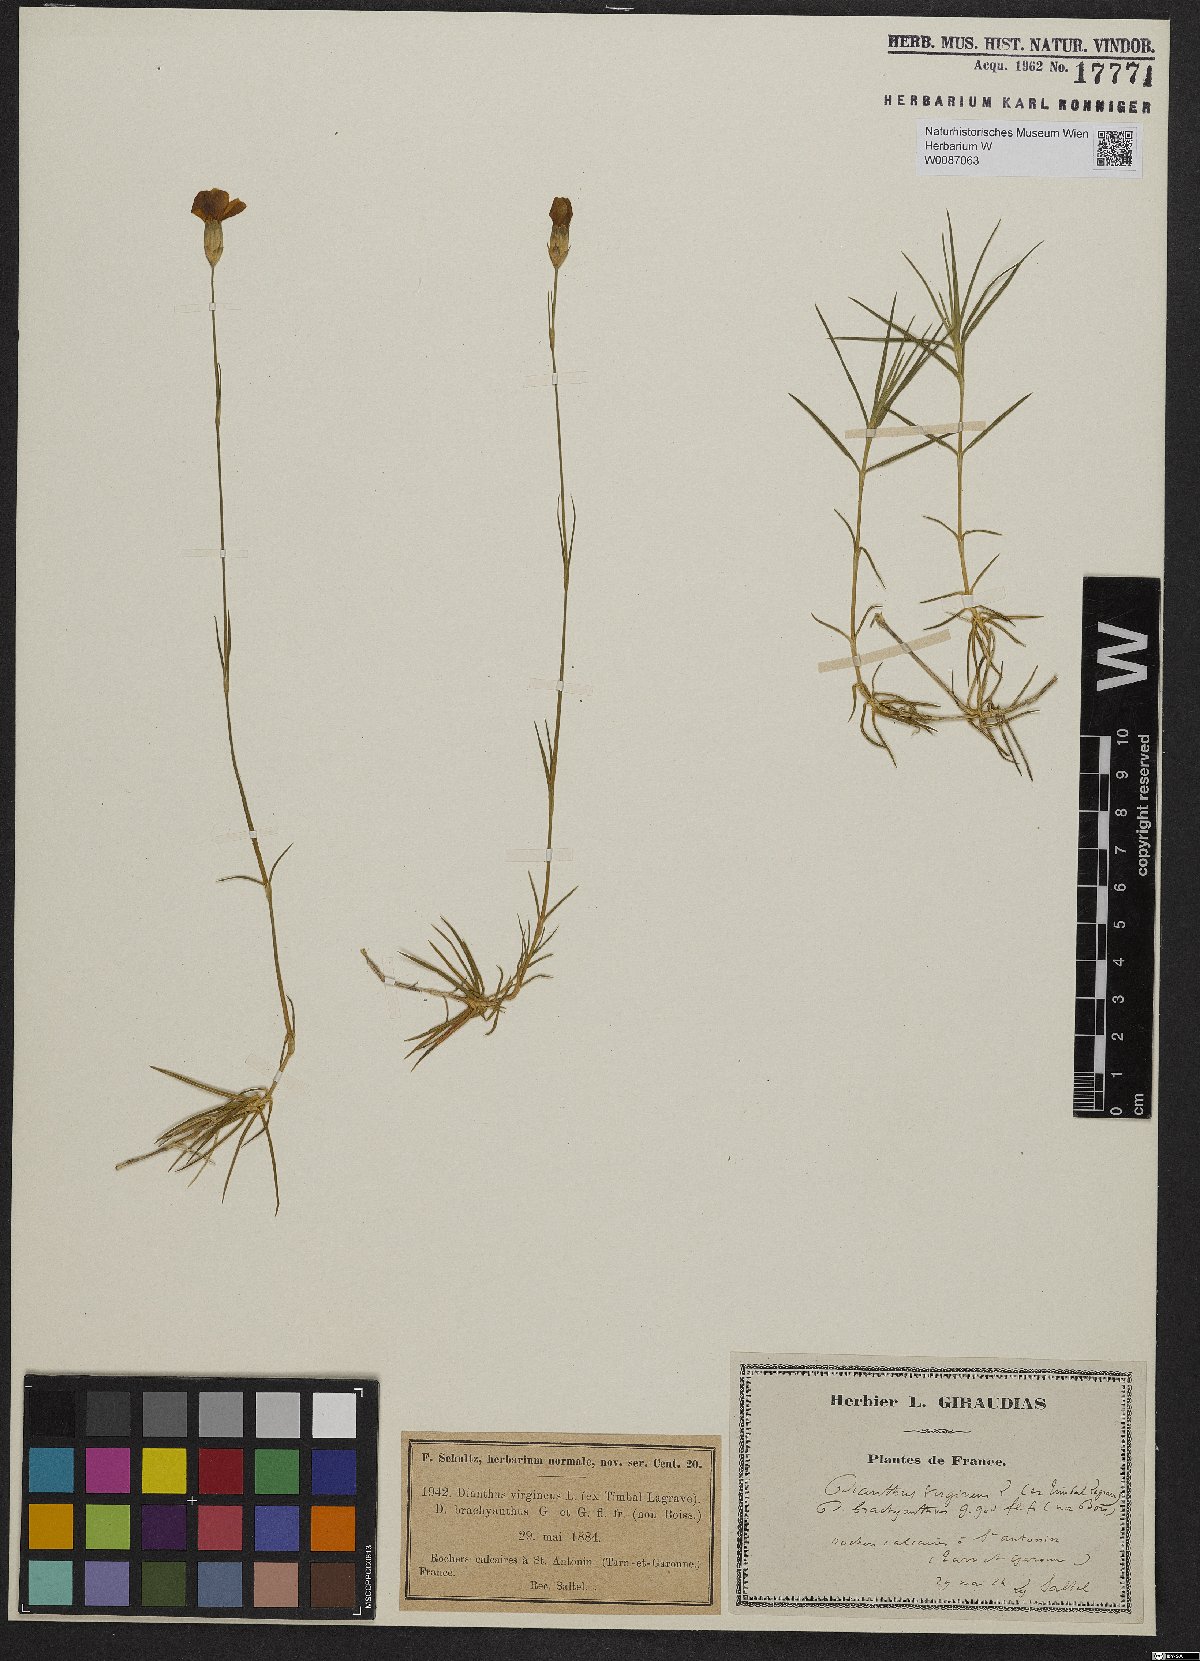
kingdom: Plantae
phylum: Tracheophyta
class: Magnoliopsida
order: Caryophyllales
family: Caryophyllaceae
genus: Dianthus
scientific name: Dianthus virgineus
